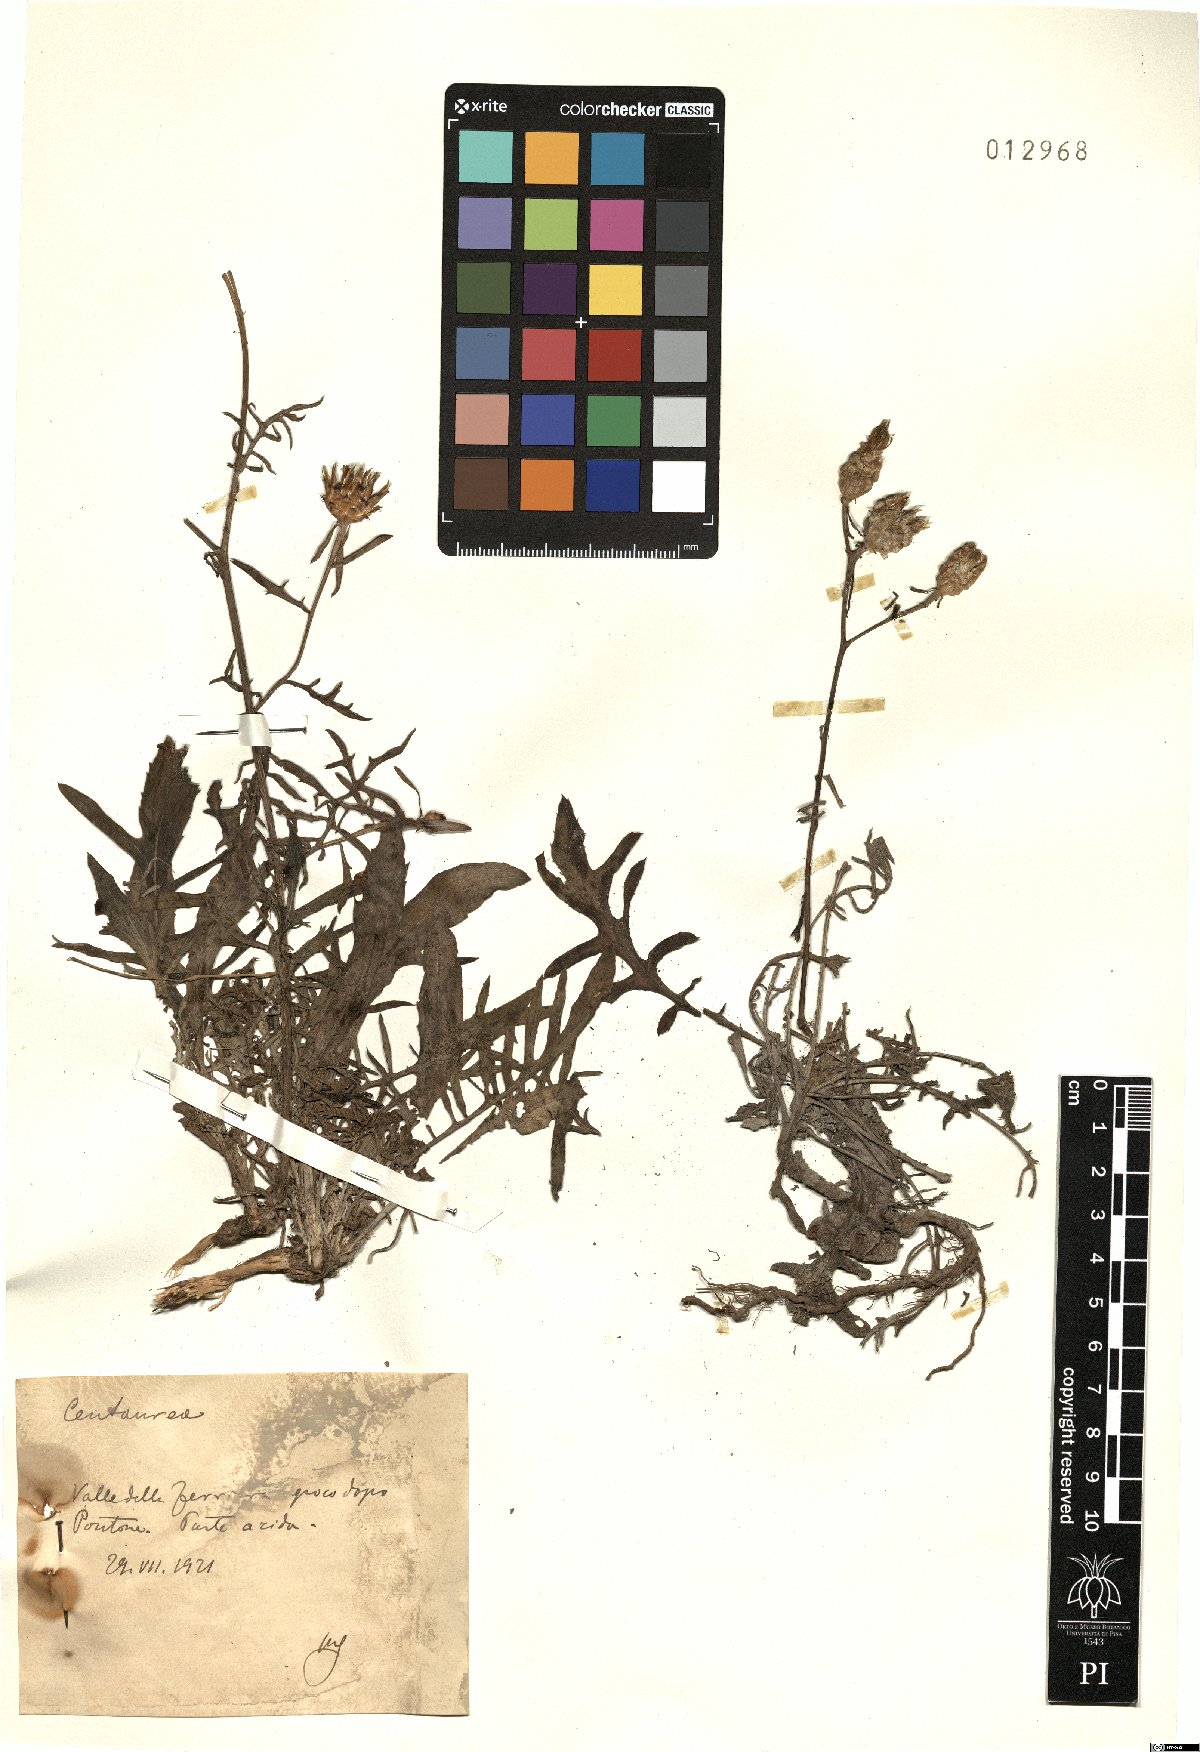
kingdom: Plantae
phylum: Tracheophyta
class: Magnoliopsida
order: Asterales
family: Asteraceae
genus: Centaurea
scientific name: Centaurea
